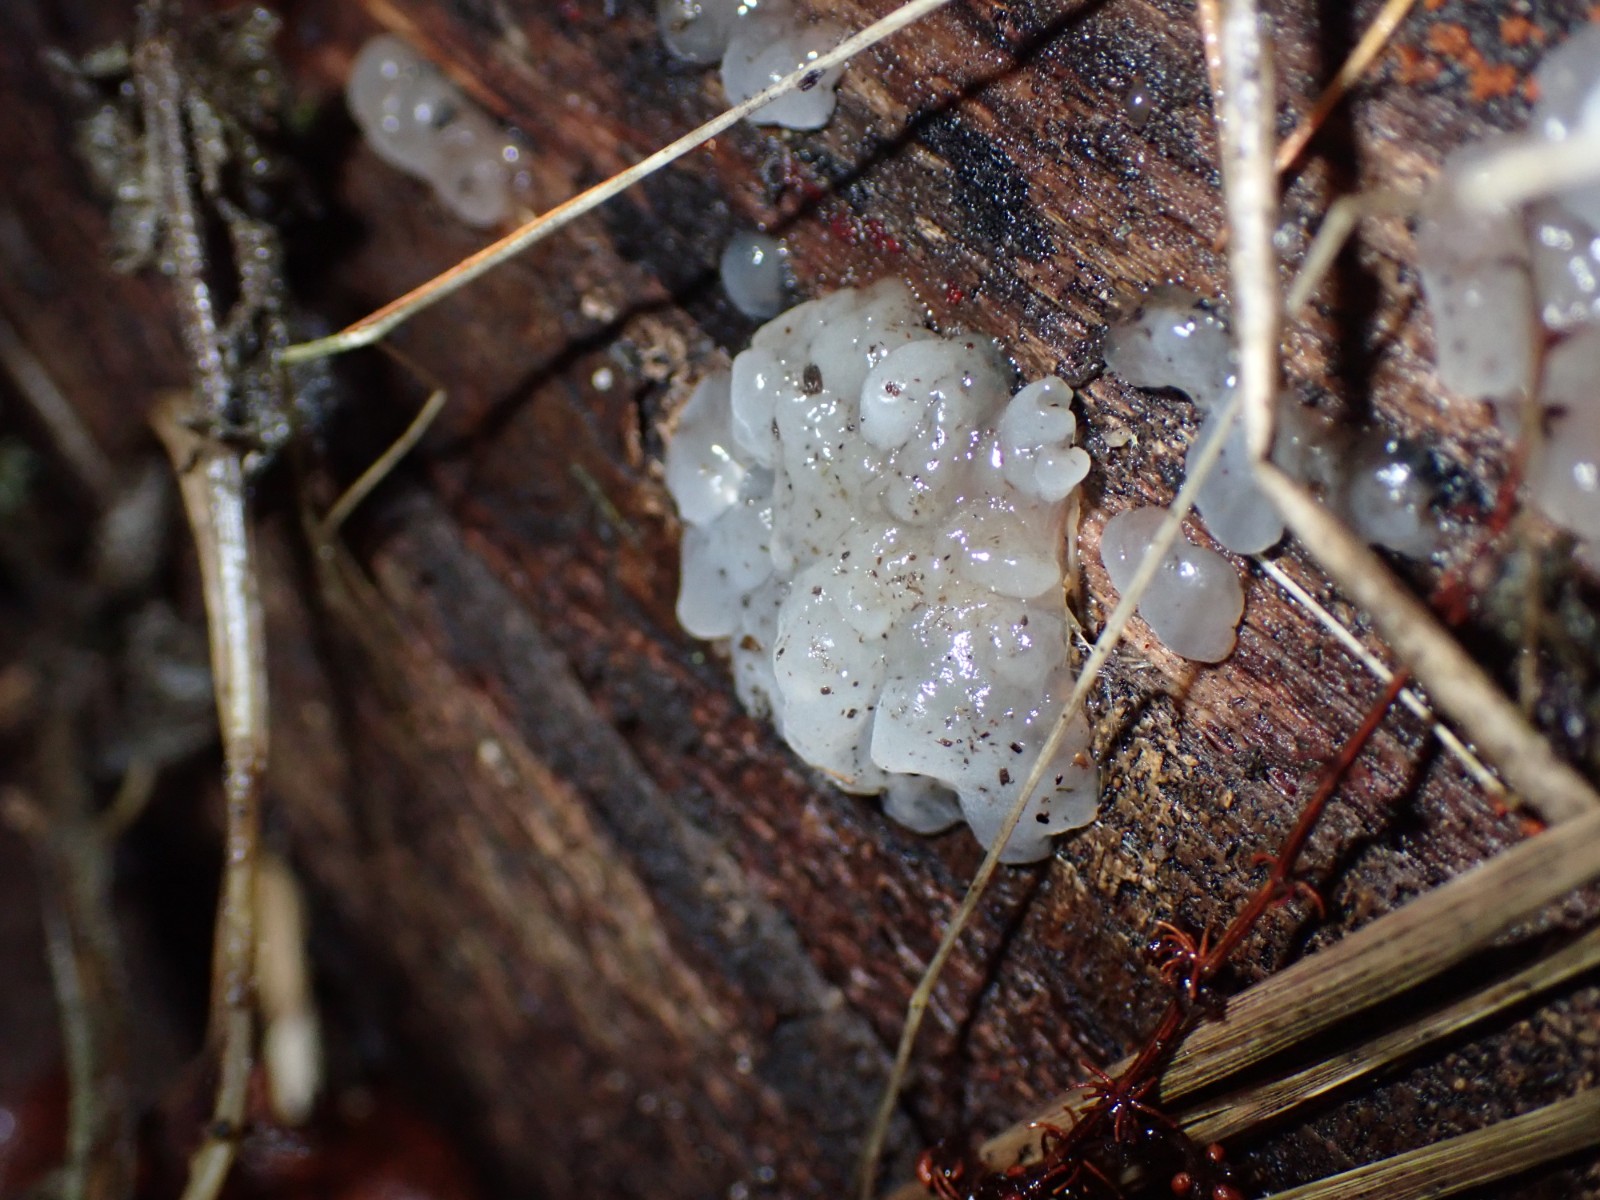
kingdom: Fungi
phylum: Basidiomycota
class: Agaricomycetes
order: Auriculariales
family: Hyaloriaceae
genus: Myxarium
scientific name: Myxarium nucleatum
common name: klar bævretop
